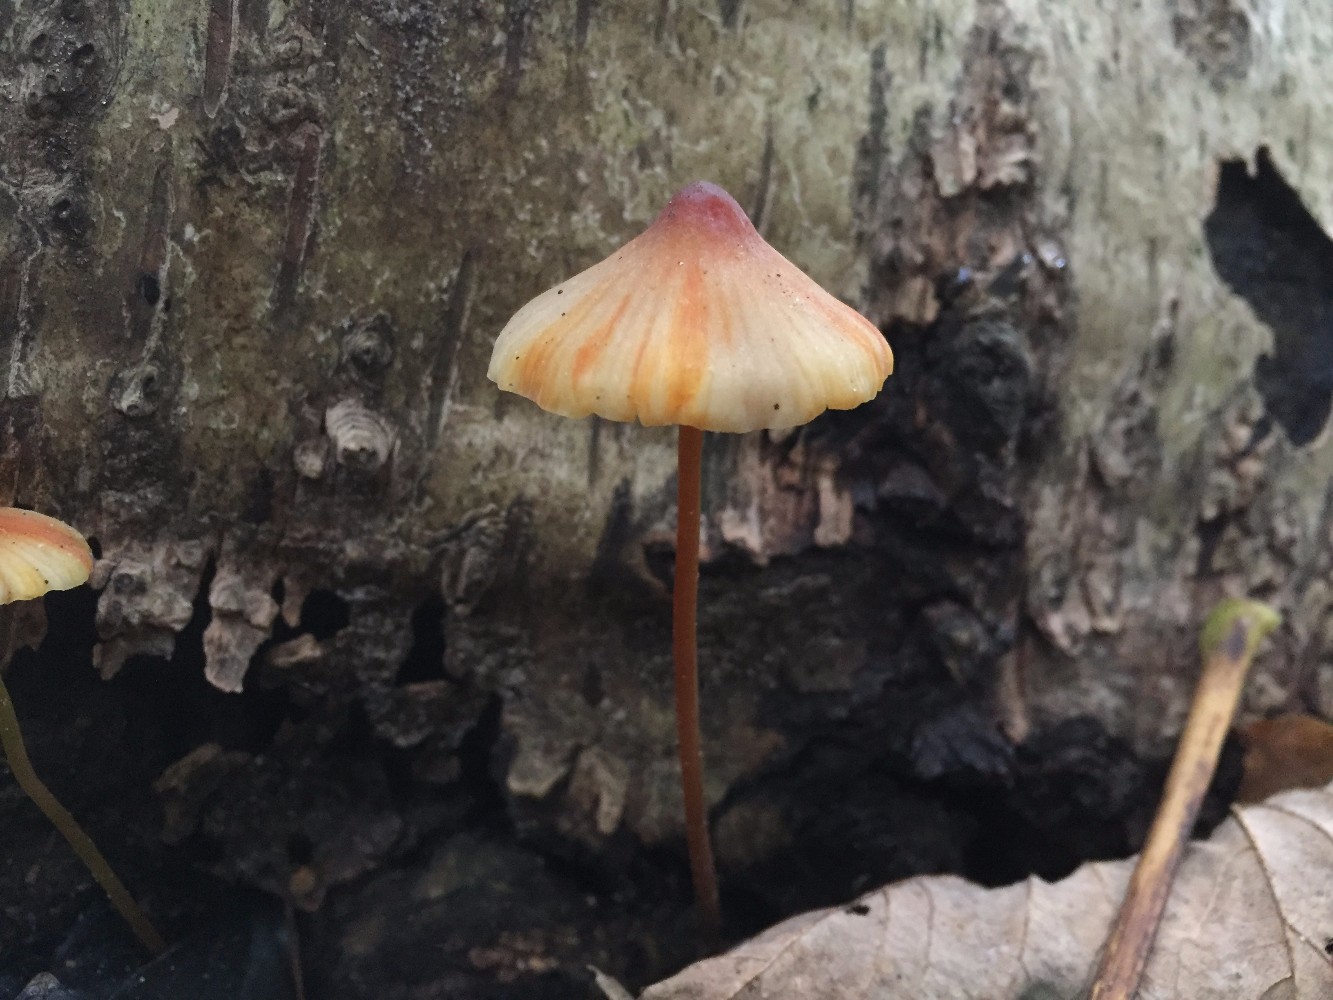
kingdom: Fungi
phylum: Basidiomycota
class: Agaricomycetes
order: Agaricales
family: Mycenaceae
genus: Mycena
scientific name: Mycena crocata
